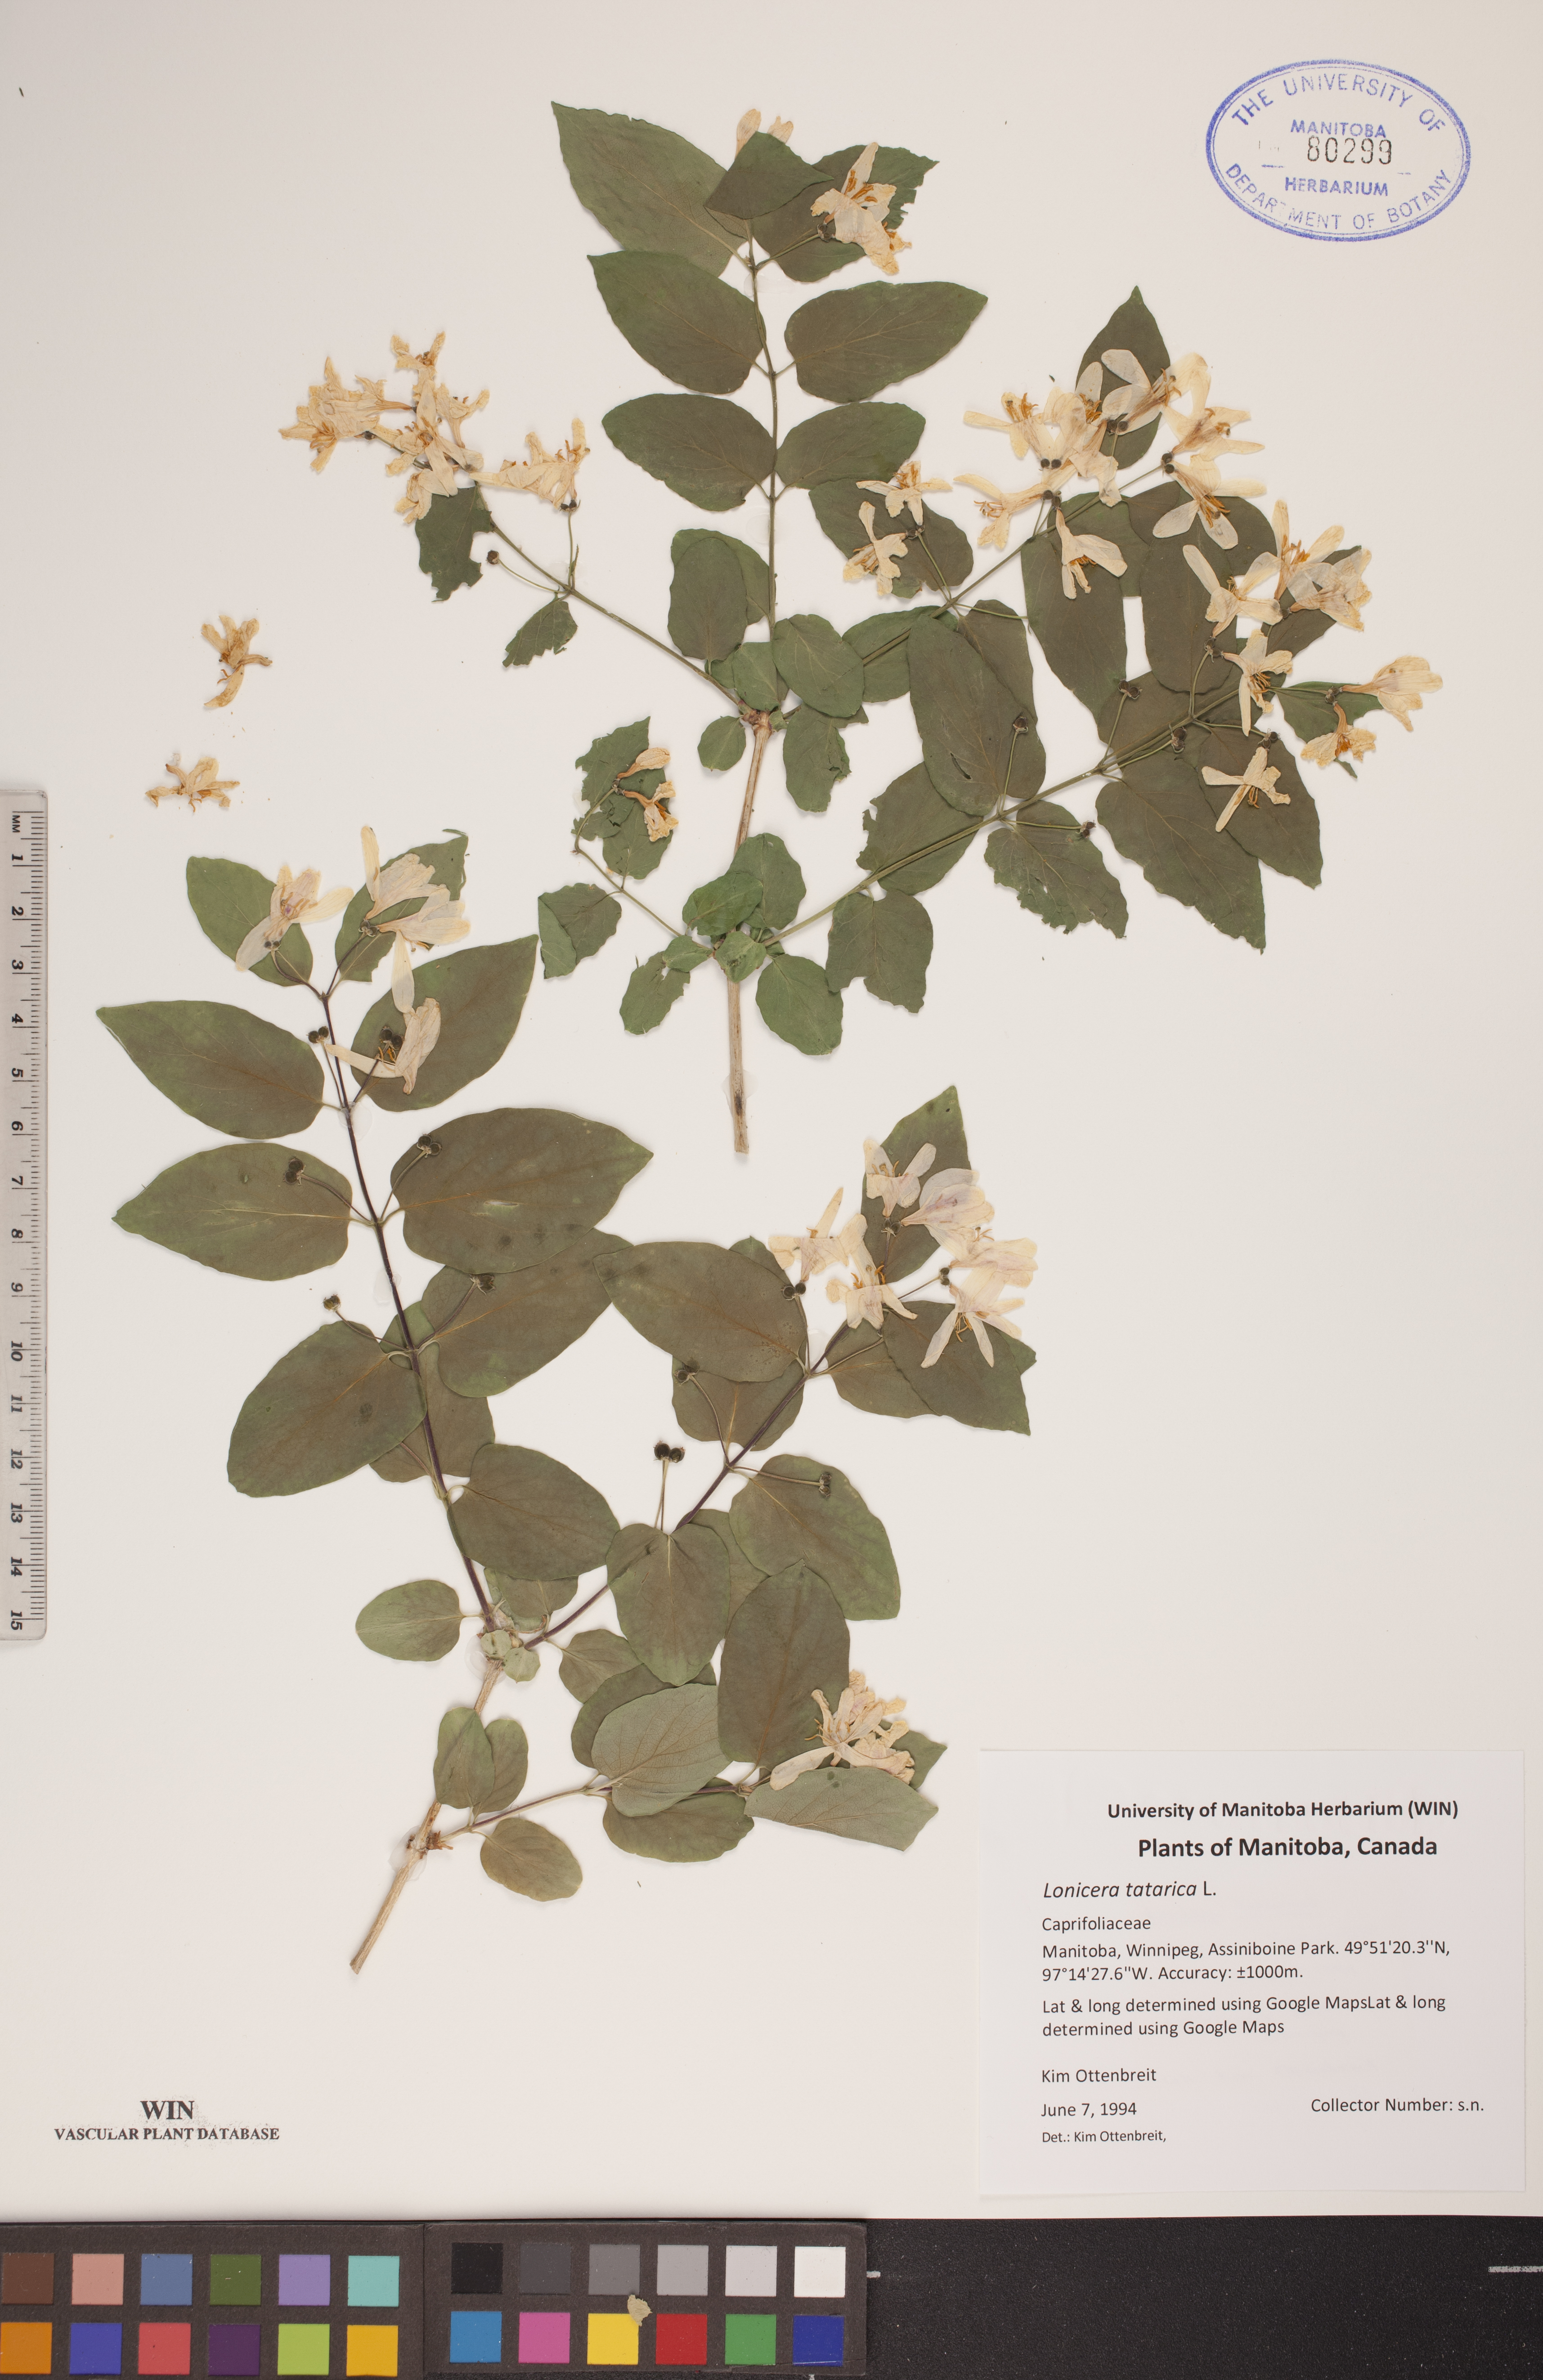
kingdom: Plantae
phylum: Tracheophyta
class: Magnoliopsida
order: Dipsacales
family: Caprifoliaceae
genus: Lonicera
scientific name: Lonicera tatarica
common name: Tatarian honeysuckle
